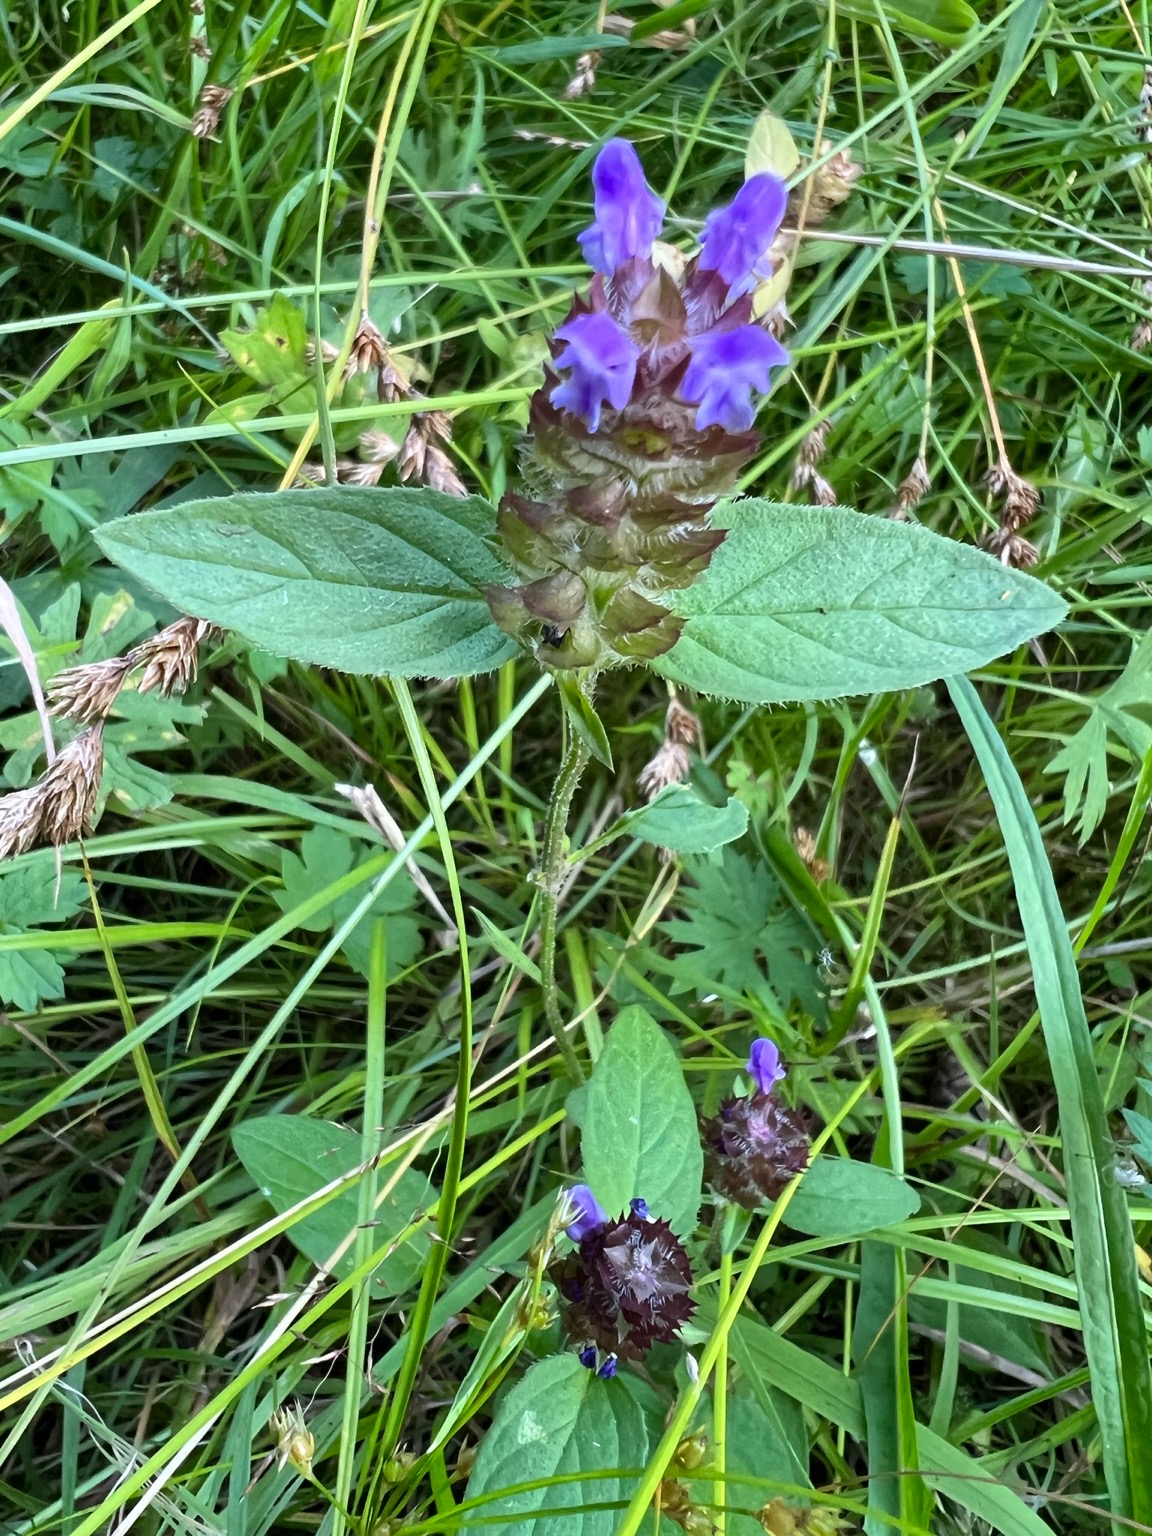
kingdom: Plantae
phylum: Tracheophyta
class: Magnoliopsida
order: Lamiales
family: Lamiaceae
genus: Prunella
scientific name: Prunella vulgaris
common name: Almindelig brunelle
